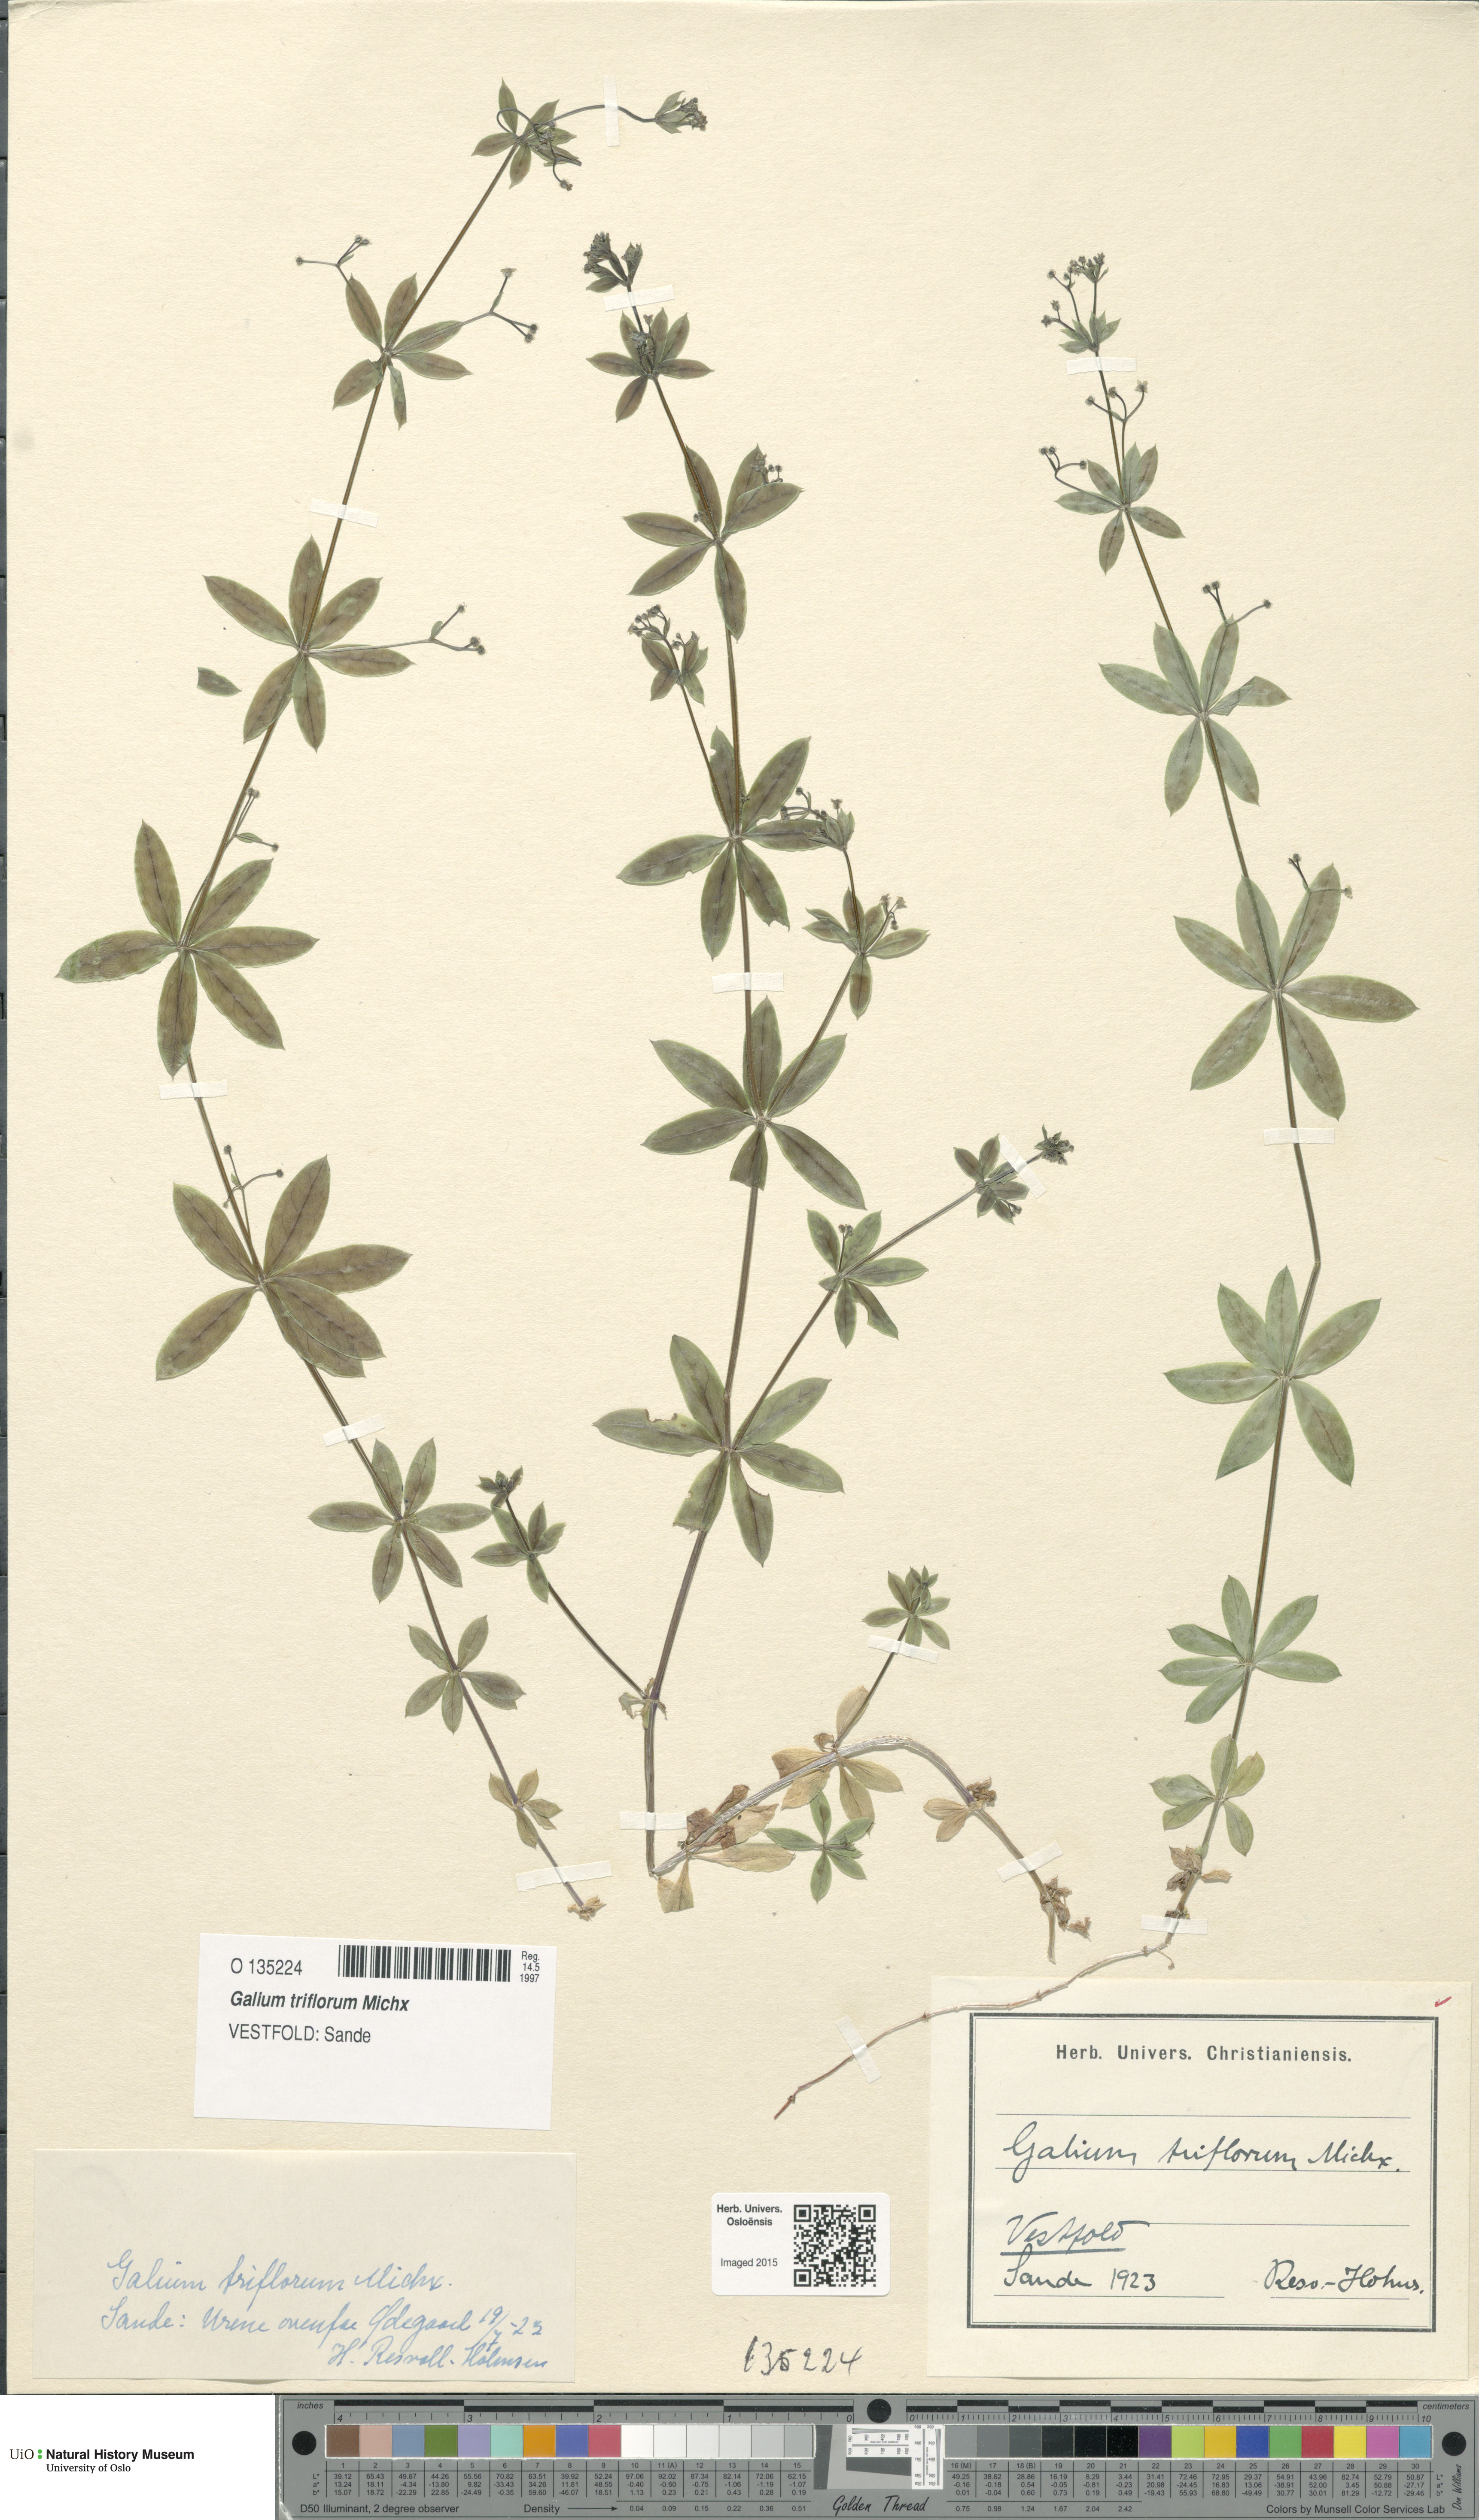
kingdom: Plantae
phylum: Tracheophyta
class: Magnoliopsida
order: Gentianales
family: Rubiaceae
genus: Galium
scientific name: Galium triflorum
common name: Fragrant bedstraw
